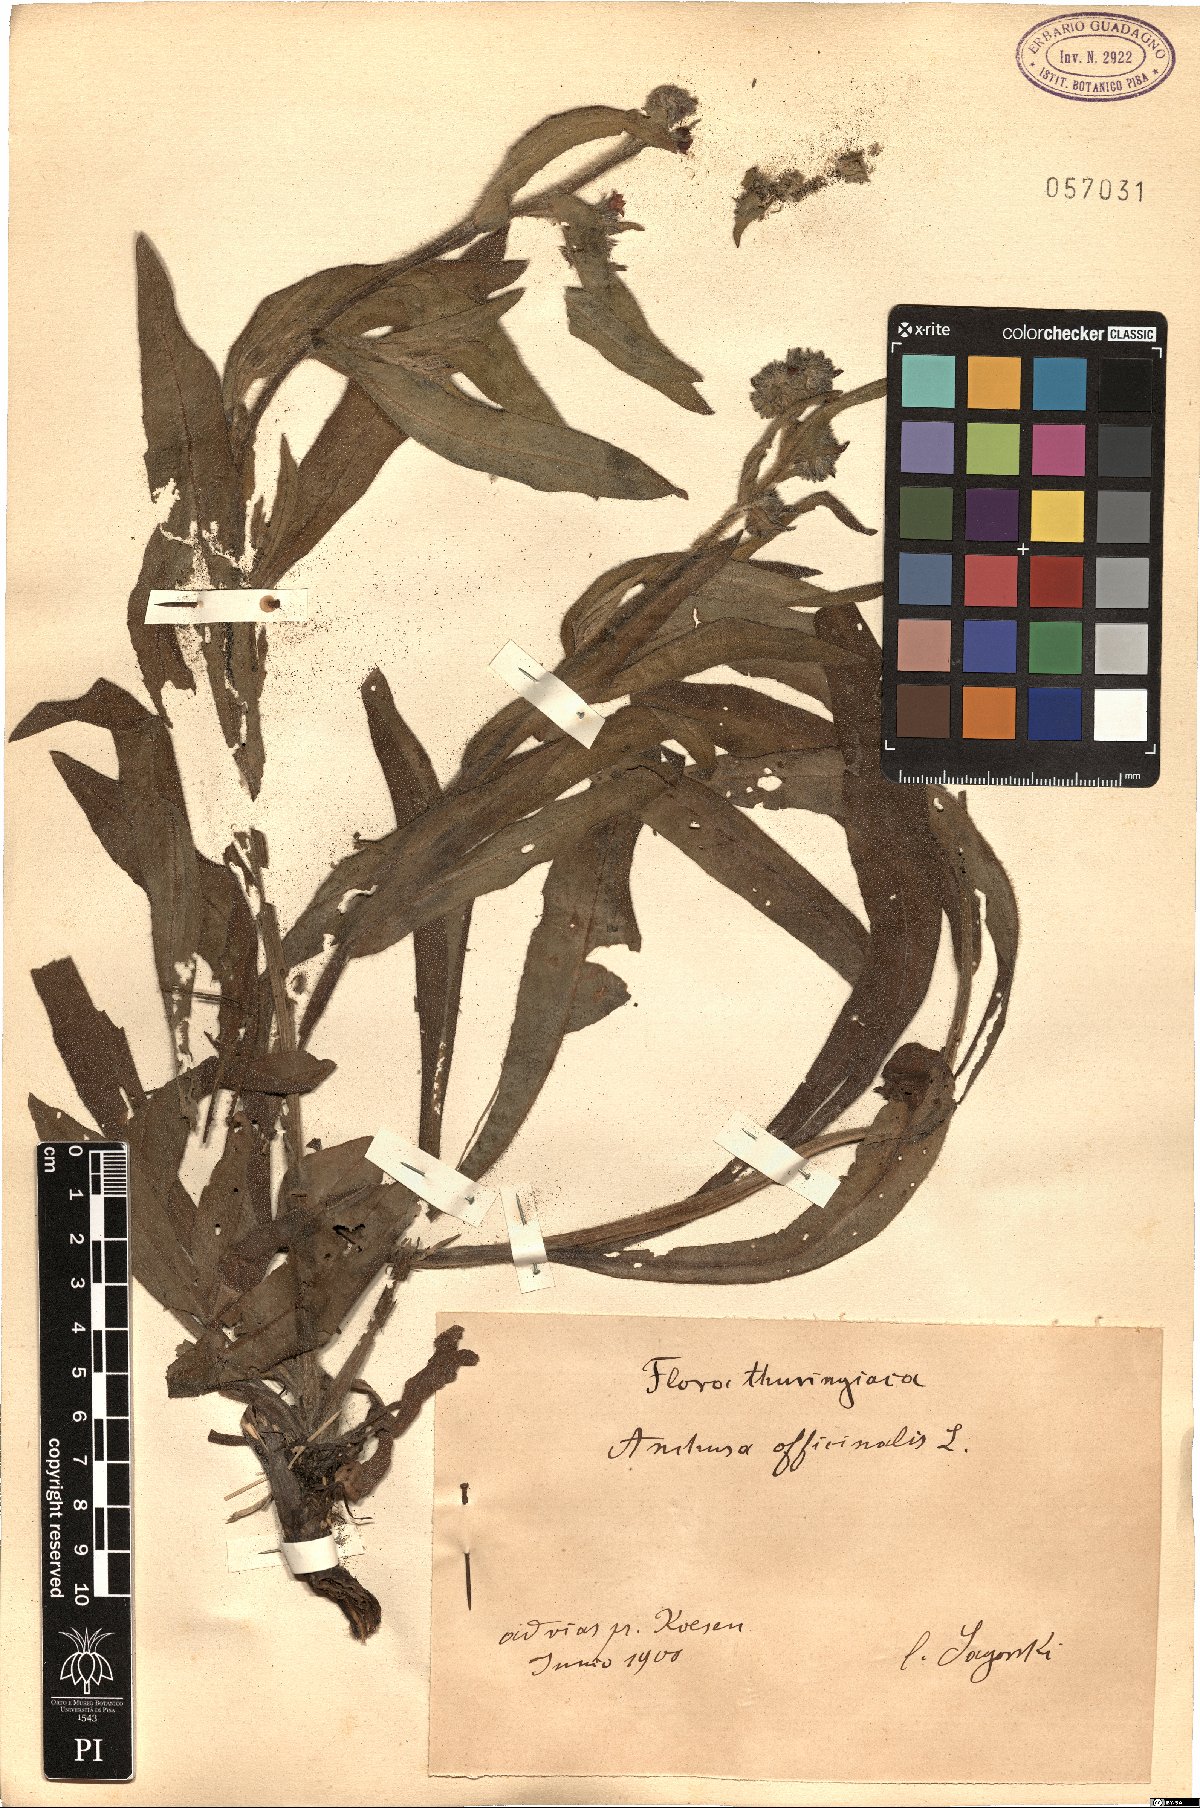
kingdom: Plantae
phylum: Tracheophyta
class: Magnoliopsida
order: Boraginales
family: Boraginaceae
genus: Anchusa
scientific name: Anchusa officinalis
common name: Alkanet
